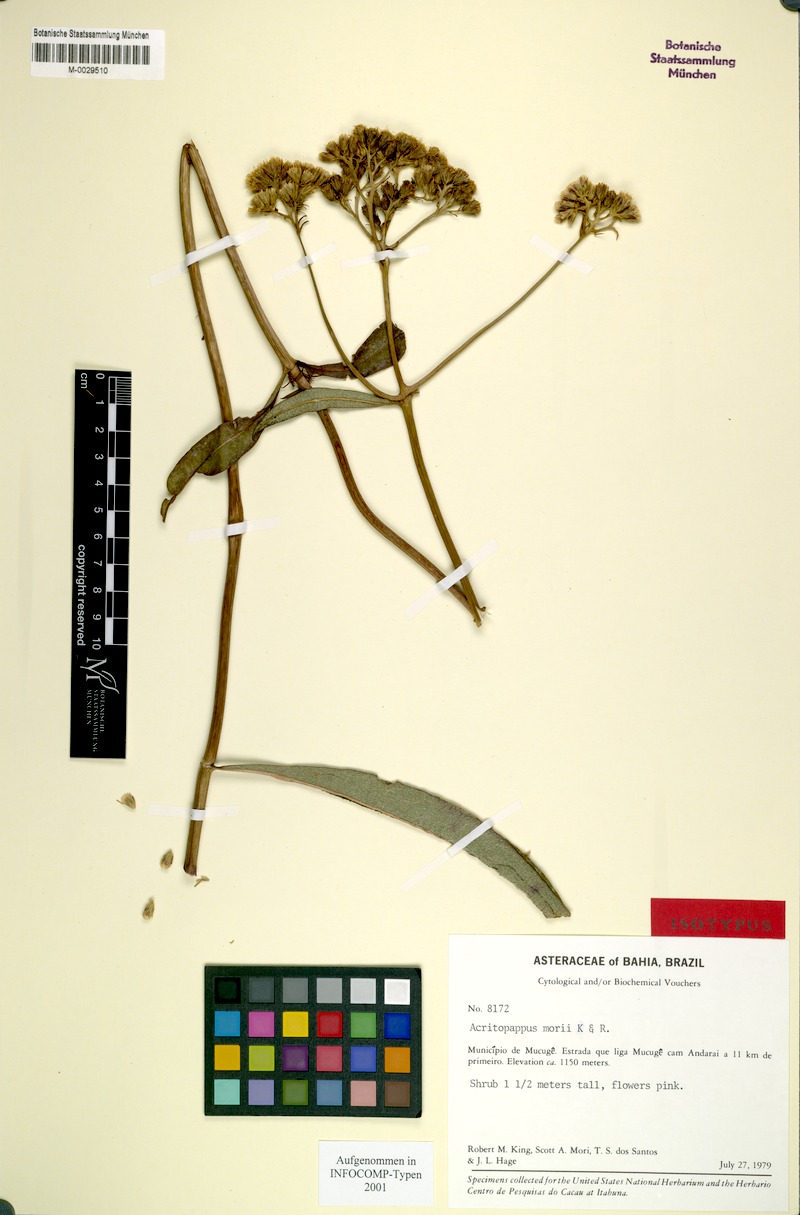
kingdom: Plantae
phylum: Tracheophyta
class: Magnoliopsida
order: Asterales
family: Asteraceae
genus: Acritopappus
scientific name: Acritopappus morii
